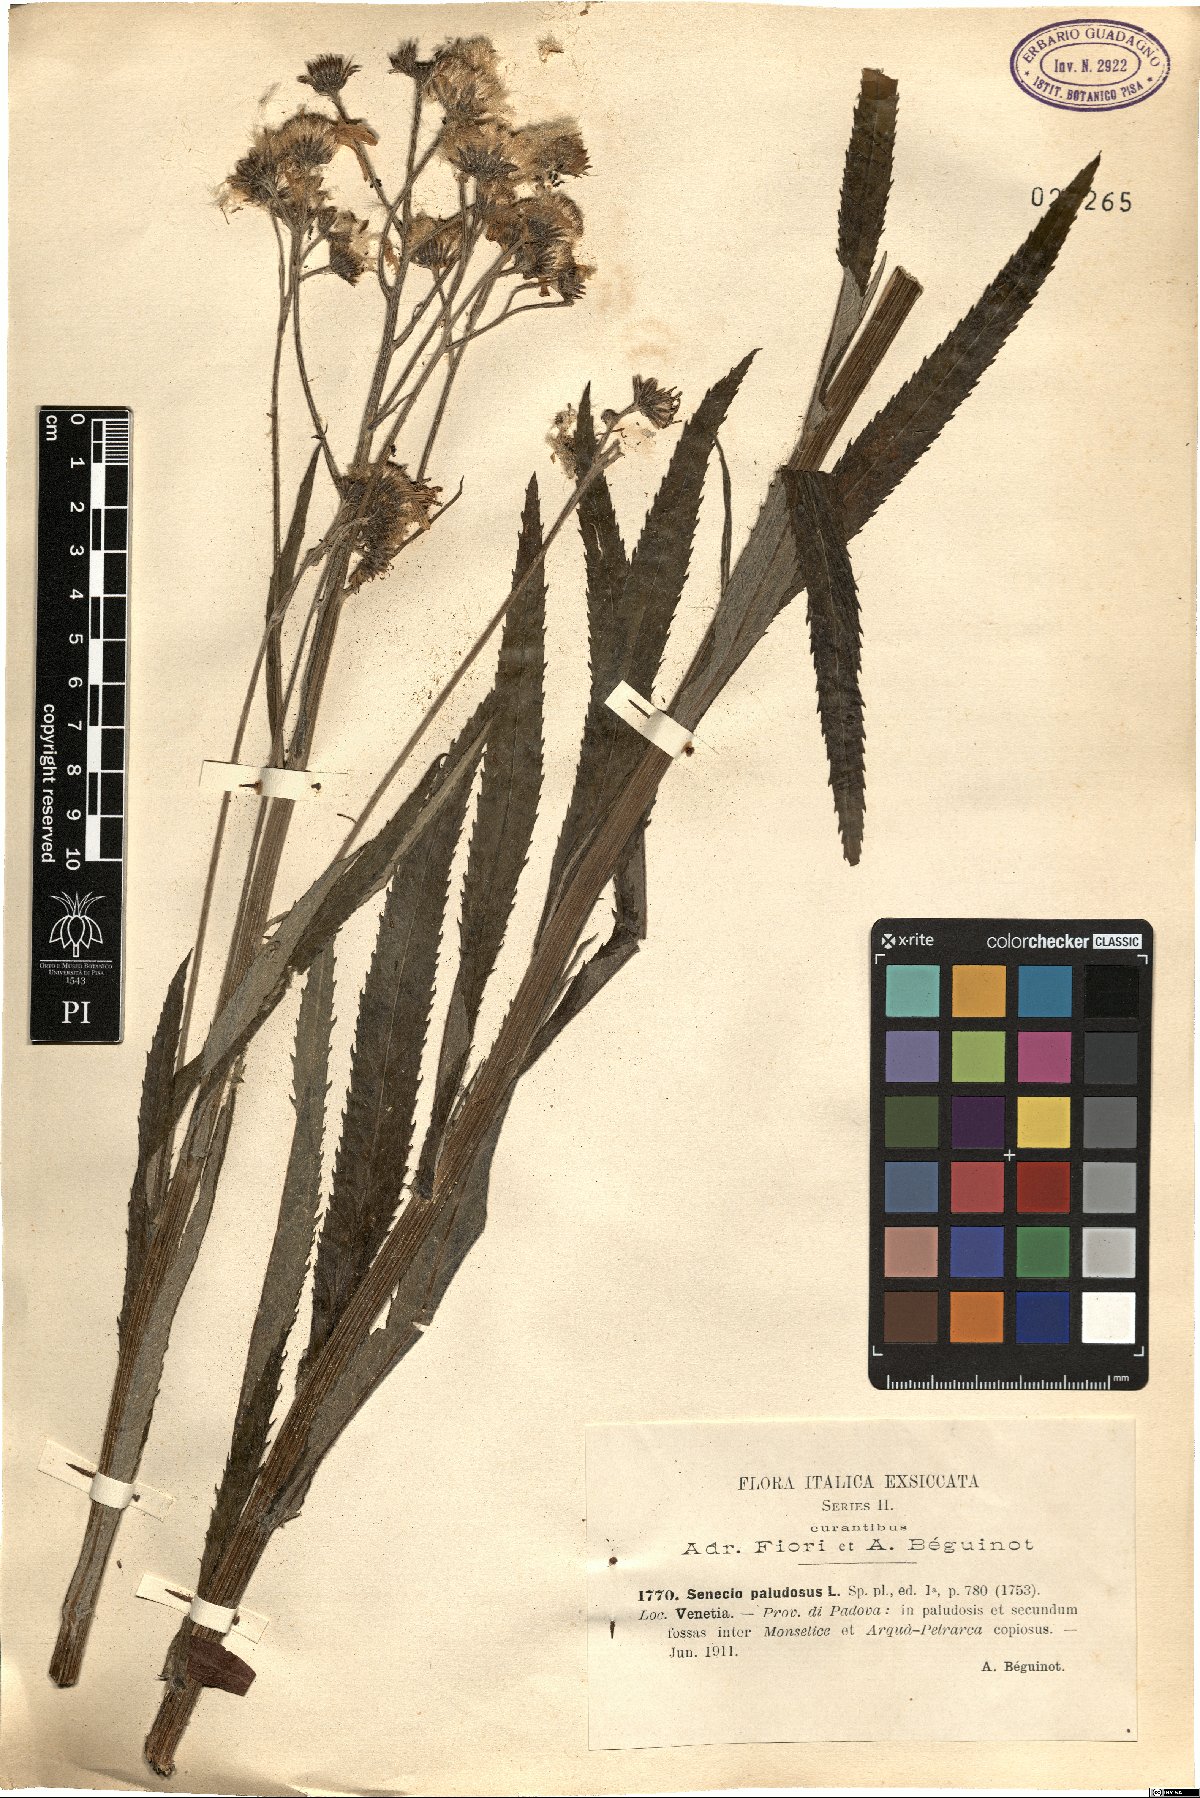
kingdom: Plantae
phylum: Tracheophyta
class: Magnoliopsida
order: Asterales
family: Asteraceae
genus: Jacobaea
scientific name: Jacobaea paludosa
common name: Fen ragwort
